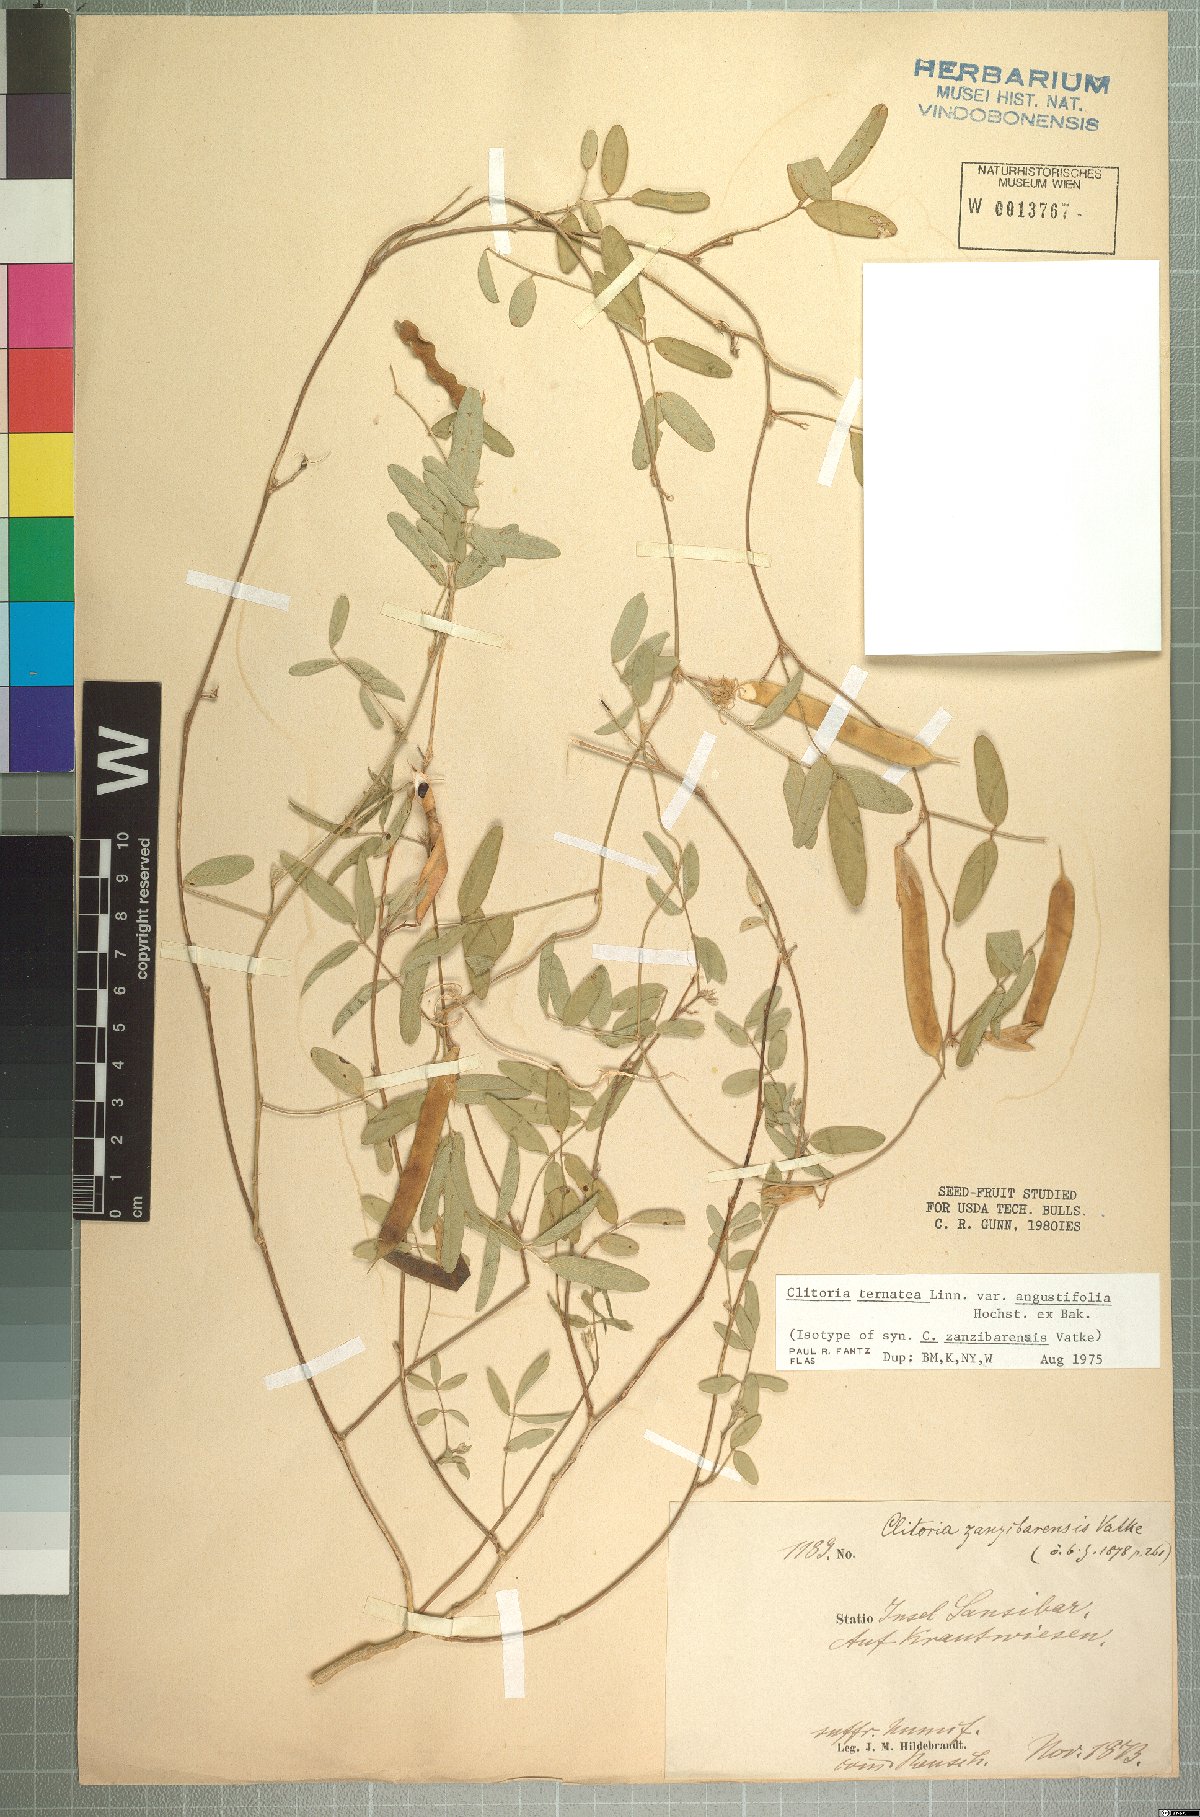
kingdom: Plantae
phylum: Tracheophyta
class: Magnoliopsida
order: Fabales
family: Fabaceae
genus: Clitoria
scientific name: Clitoria ternatea
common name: Asian pigeonwings
